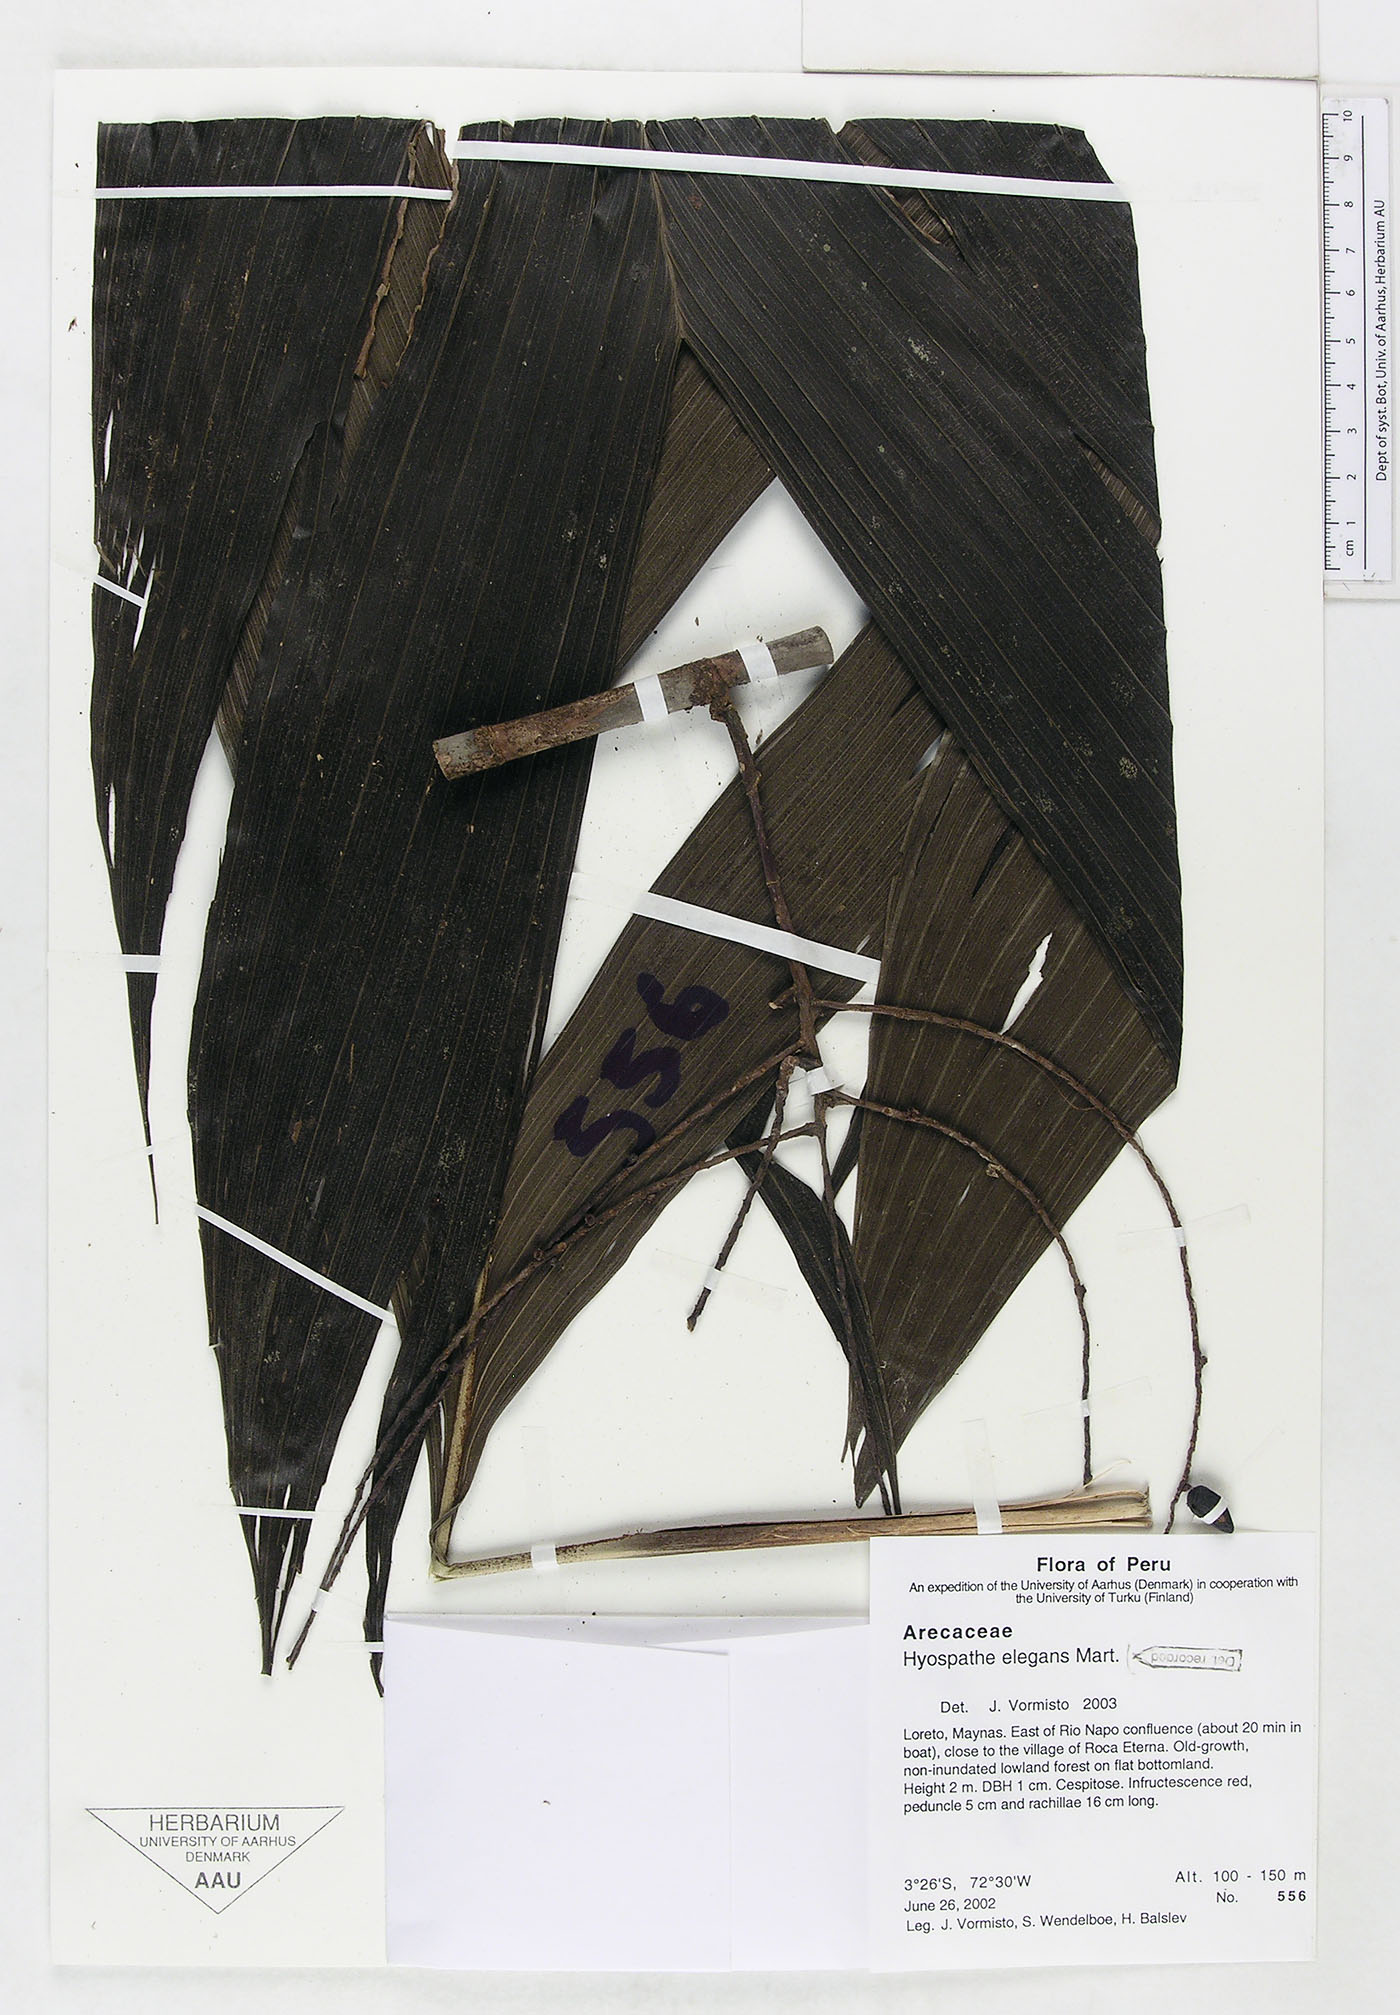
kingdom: Plantae
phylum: Tracheophyta
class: Liliopsida
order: Arecales
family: Arecaceae
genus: Hyospathe
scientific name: Hyospathe elegans
